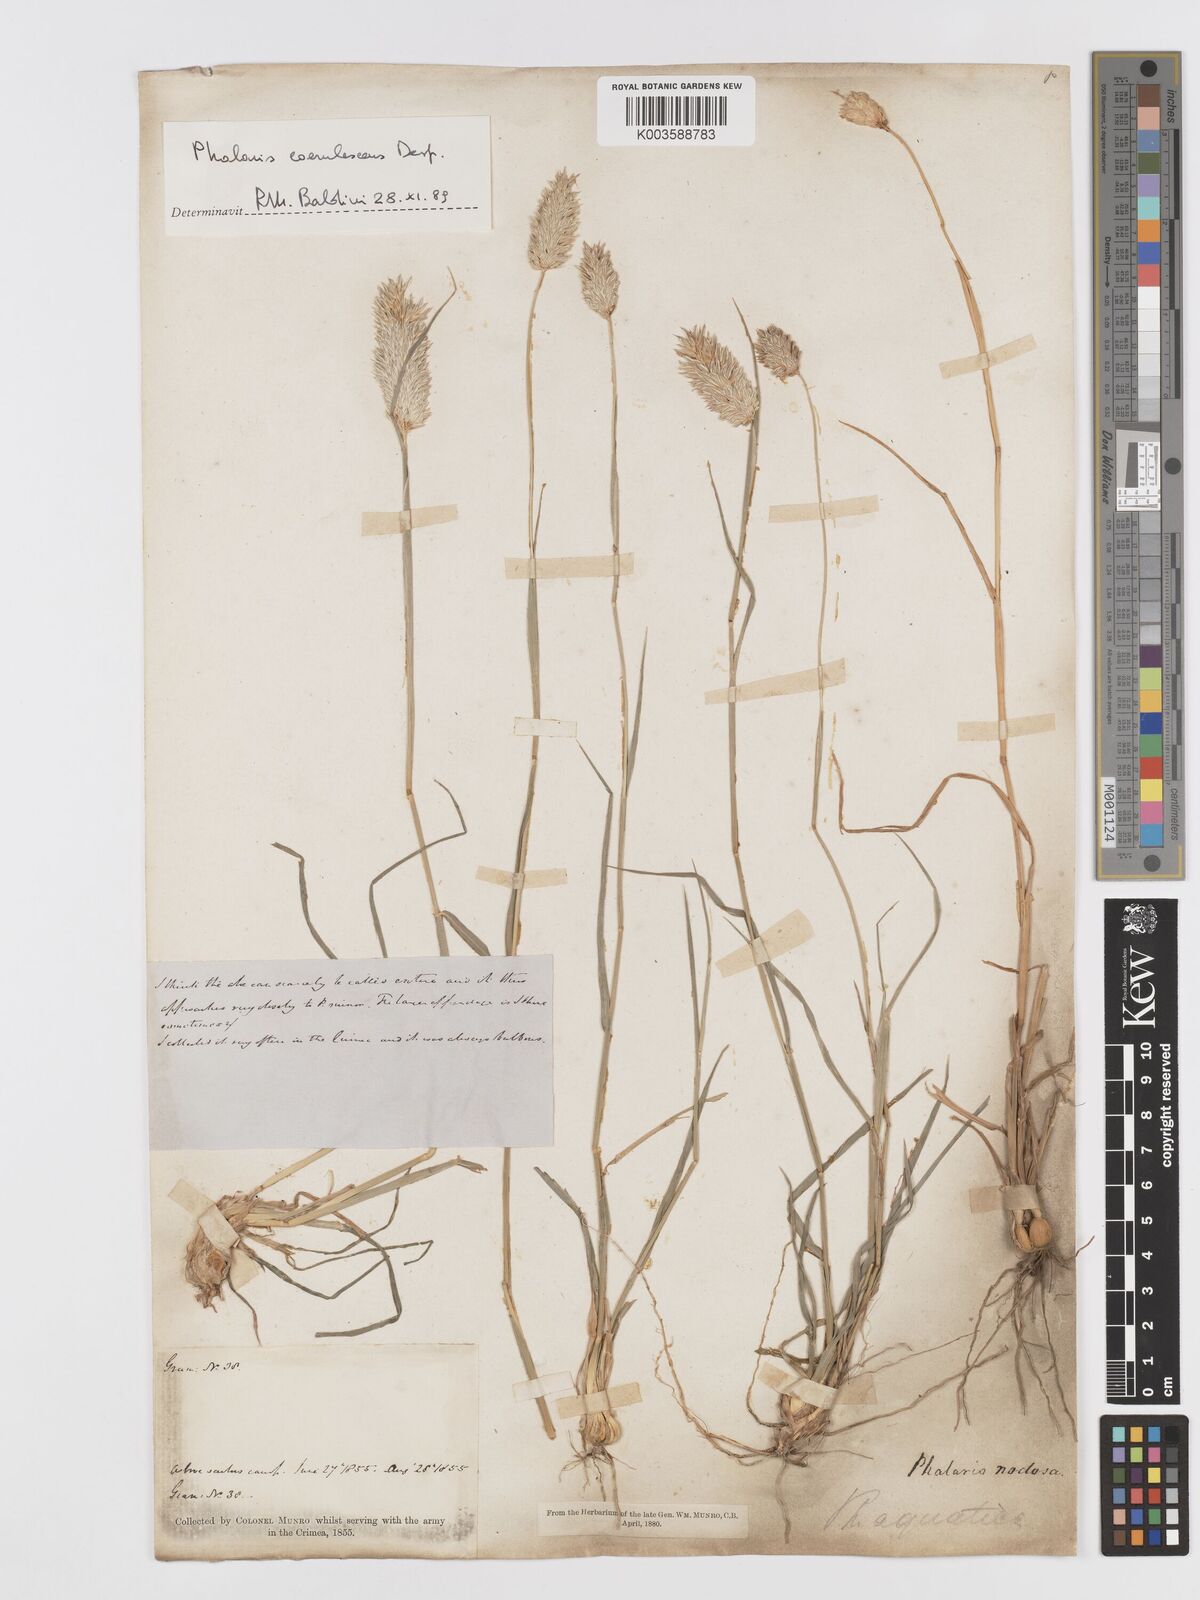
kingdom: Plantae
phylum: Tracheophyta
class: Liliopsida
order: Poales
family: Poaceae
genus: Phalaris
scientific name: Phalaris coerulescens
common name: Sunolgrass
